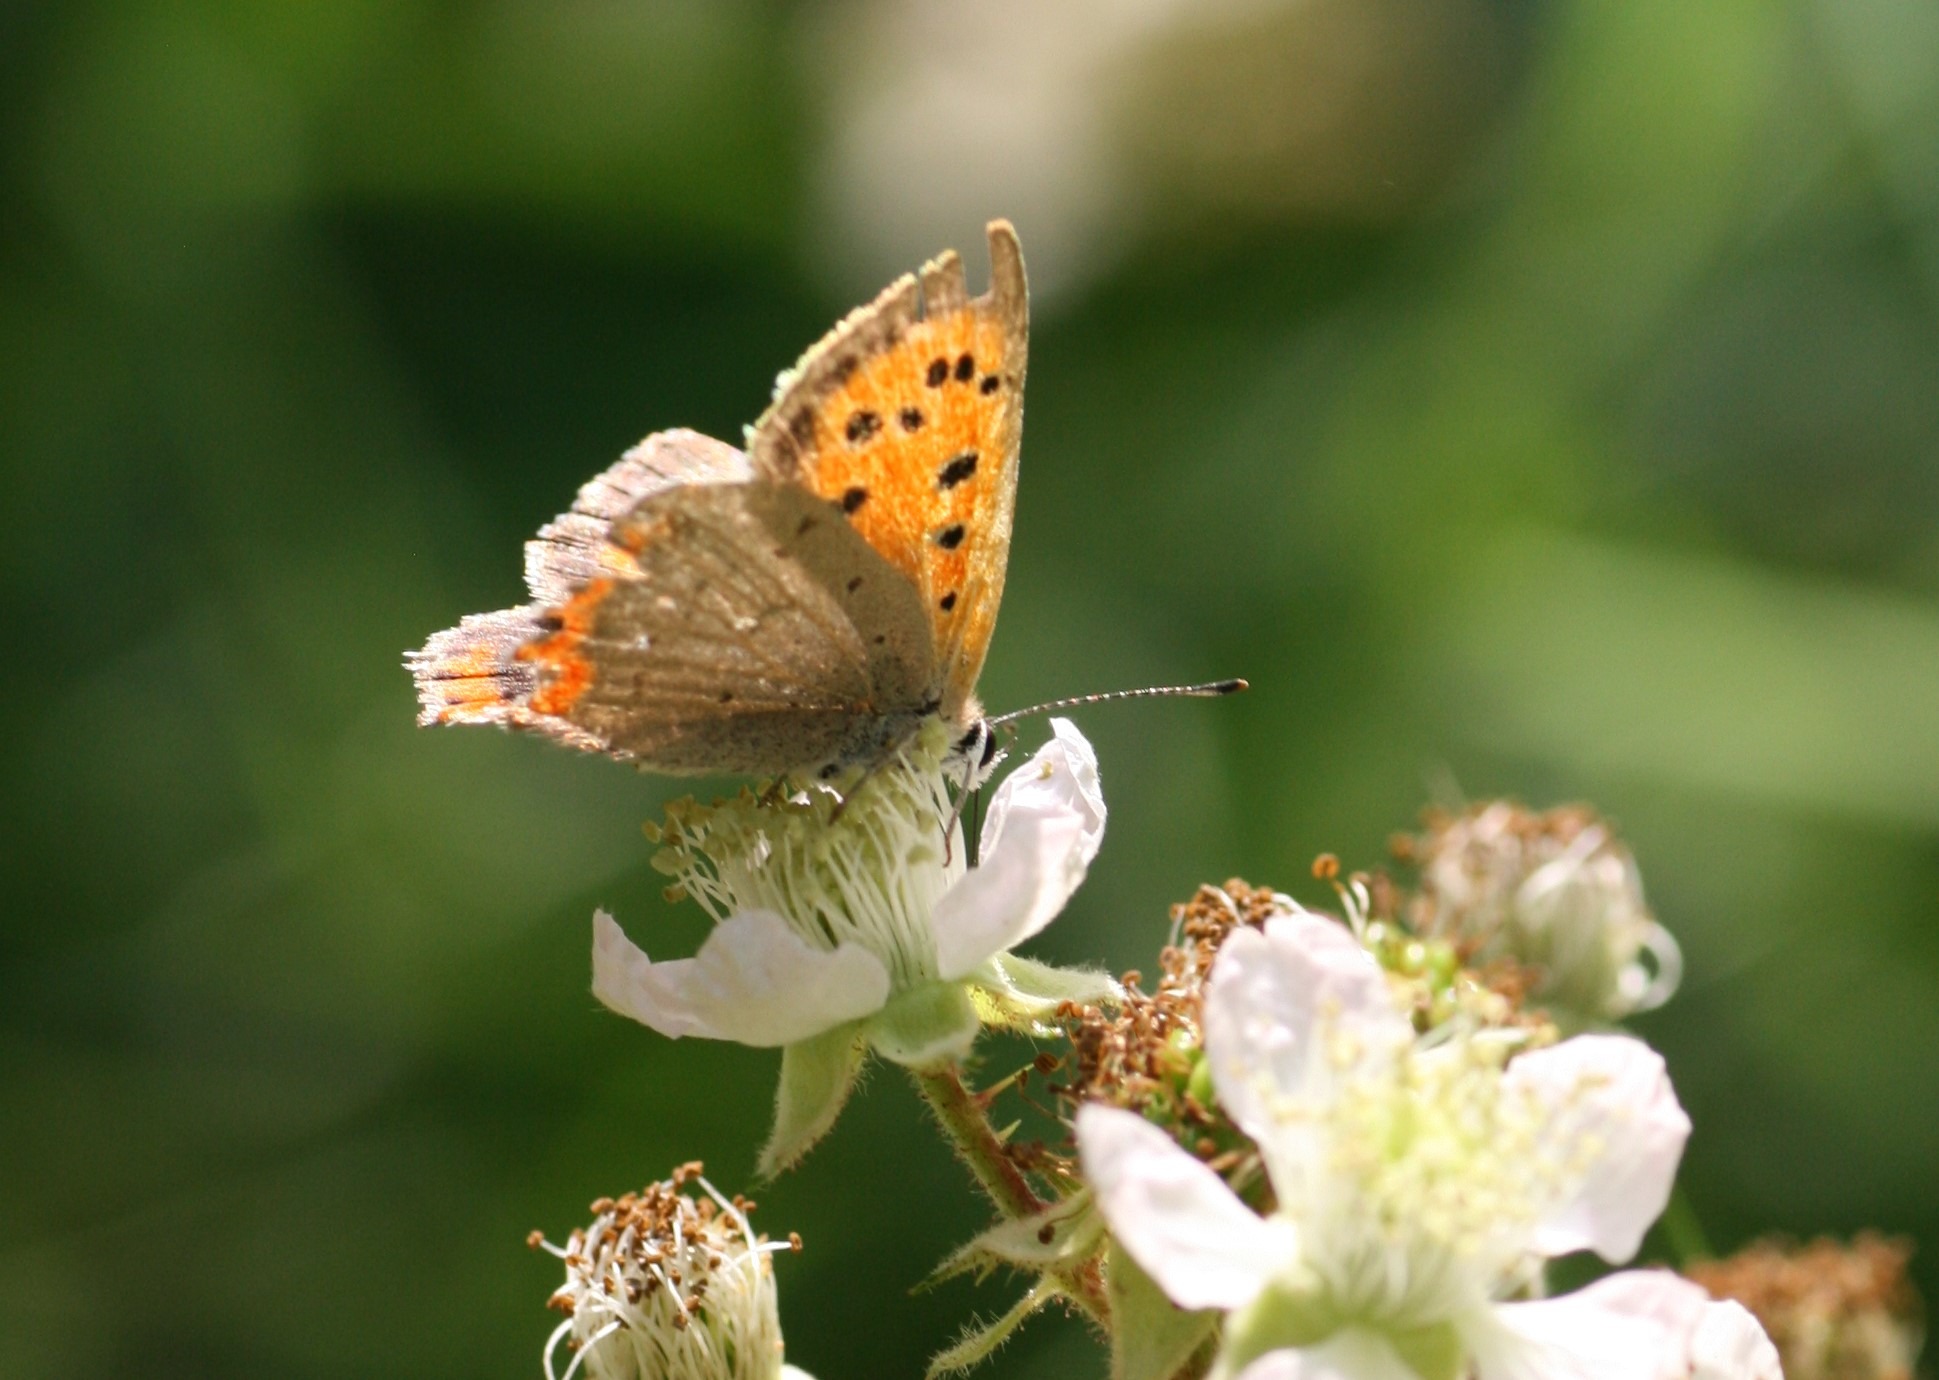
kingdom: Animalia
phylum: Arthropoda
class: Insecta
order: Lepidoptera
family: Lycaenidae
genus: Lycaena
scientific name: Lycaena phlaeas
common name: Lille ildfugl
